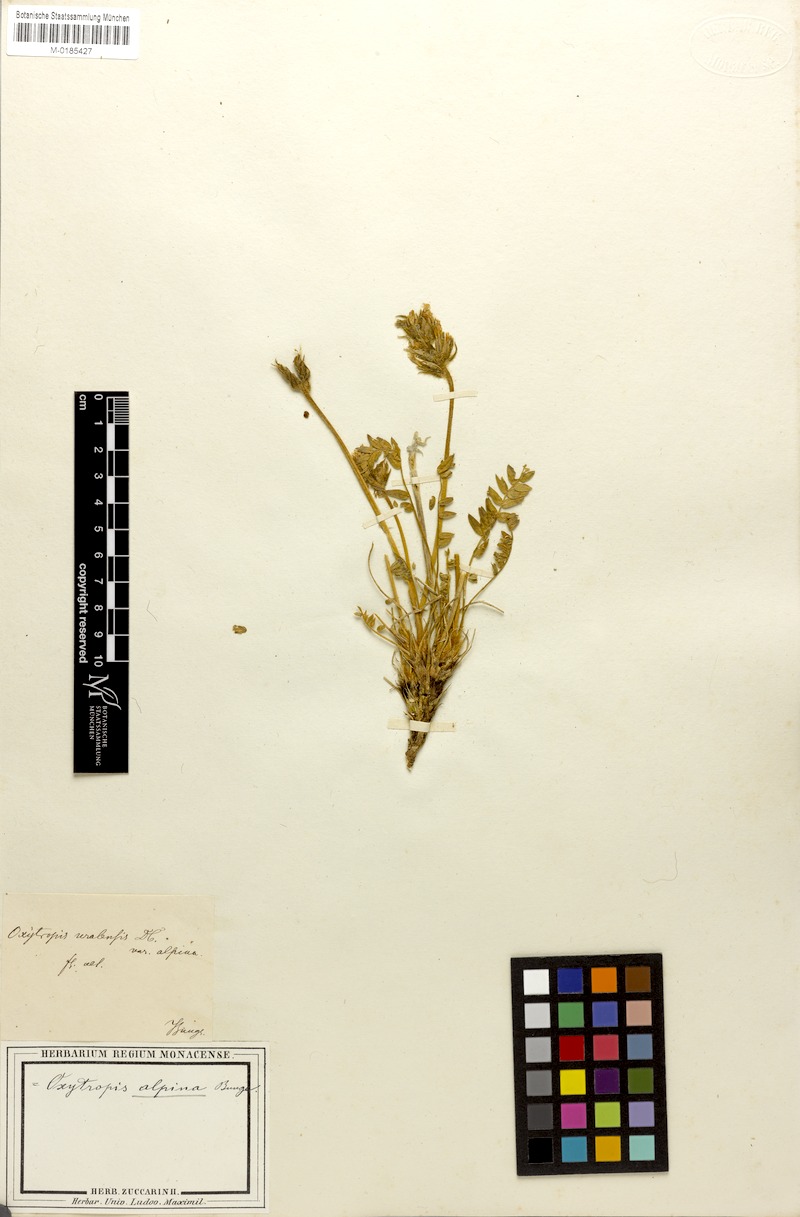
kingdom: Plantae
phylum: Tracheophyta
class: Magnoliopsida
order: Fabales
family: Fabaceae
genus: Oxytropis
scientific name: Oxytropis uralensis
